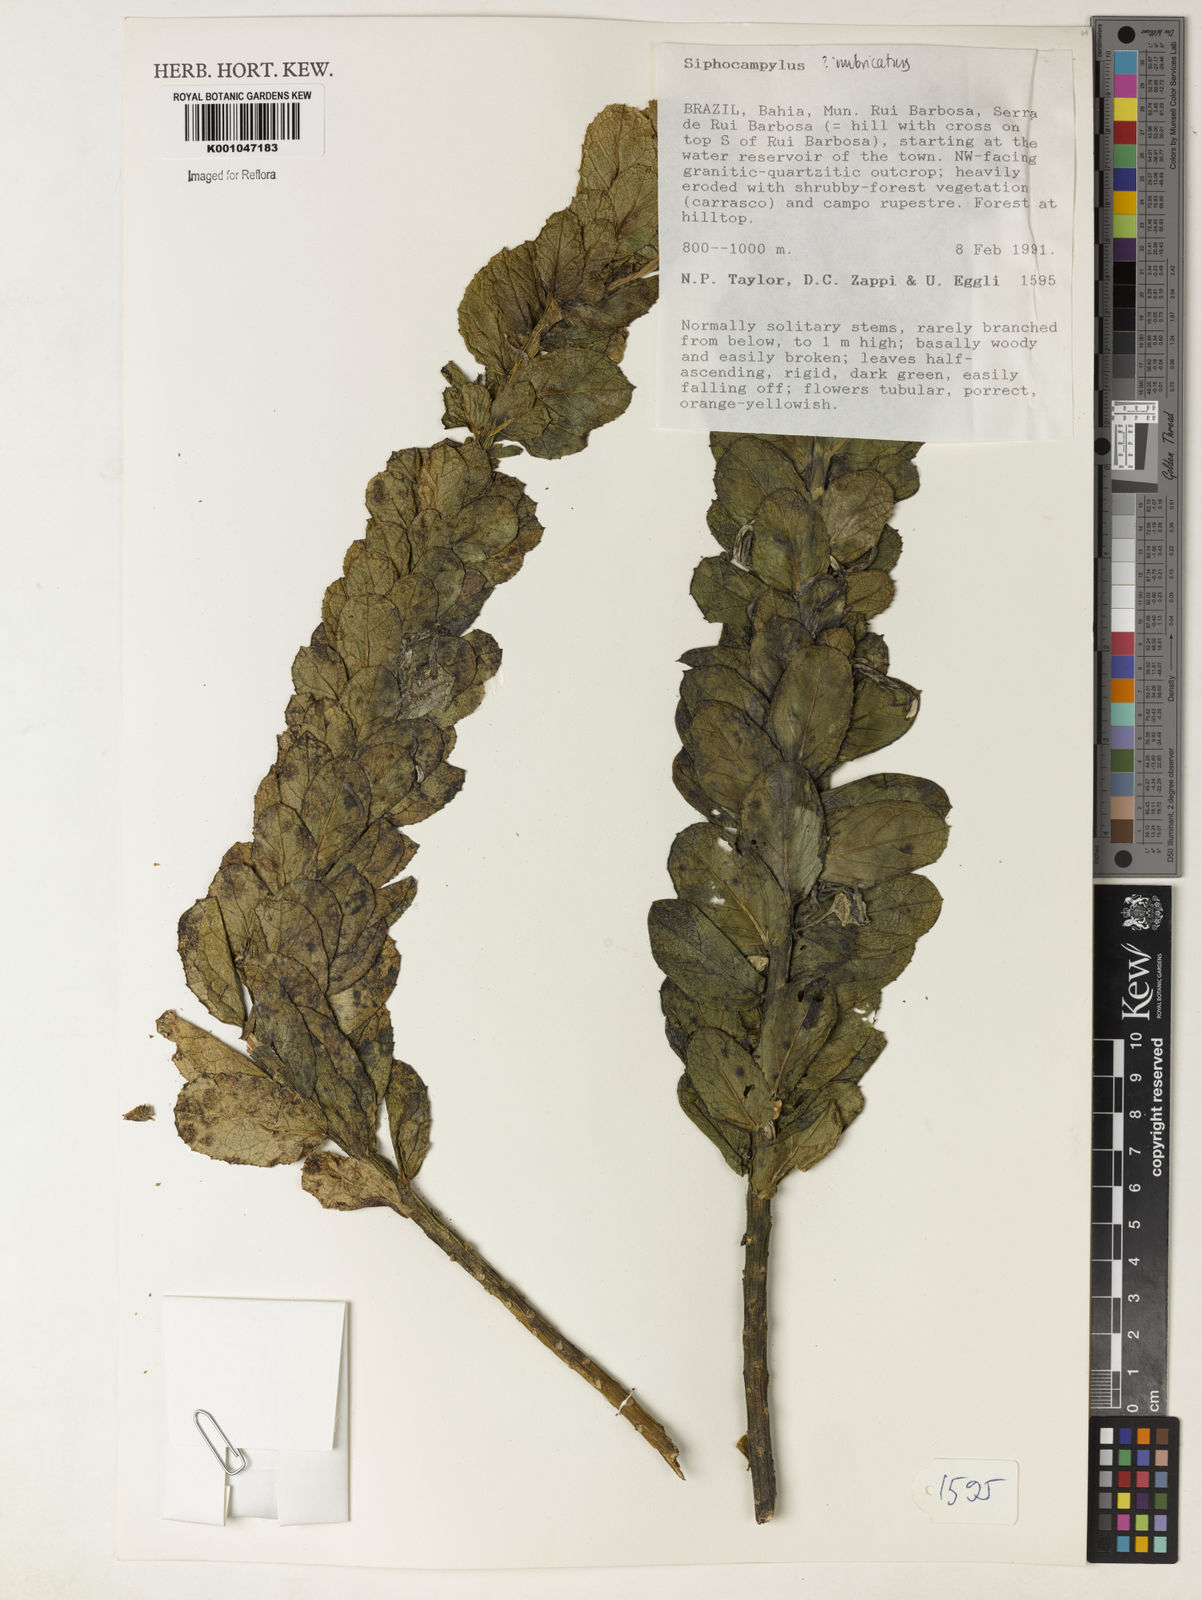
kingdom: Plantae
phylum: Tracheophyta
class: Magnoliopsida
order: Asterales
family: Campanulaceae
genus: Siphocampylus
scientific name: Siphocampylus imbricatus
